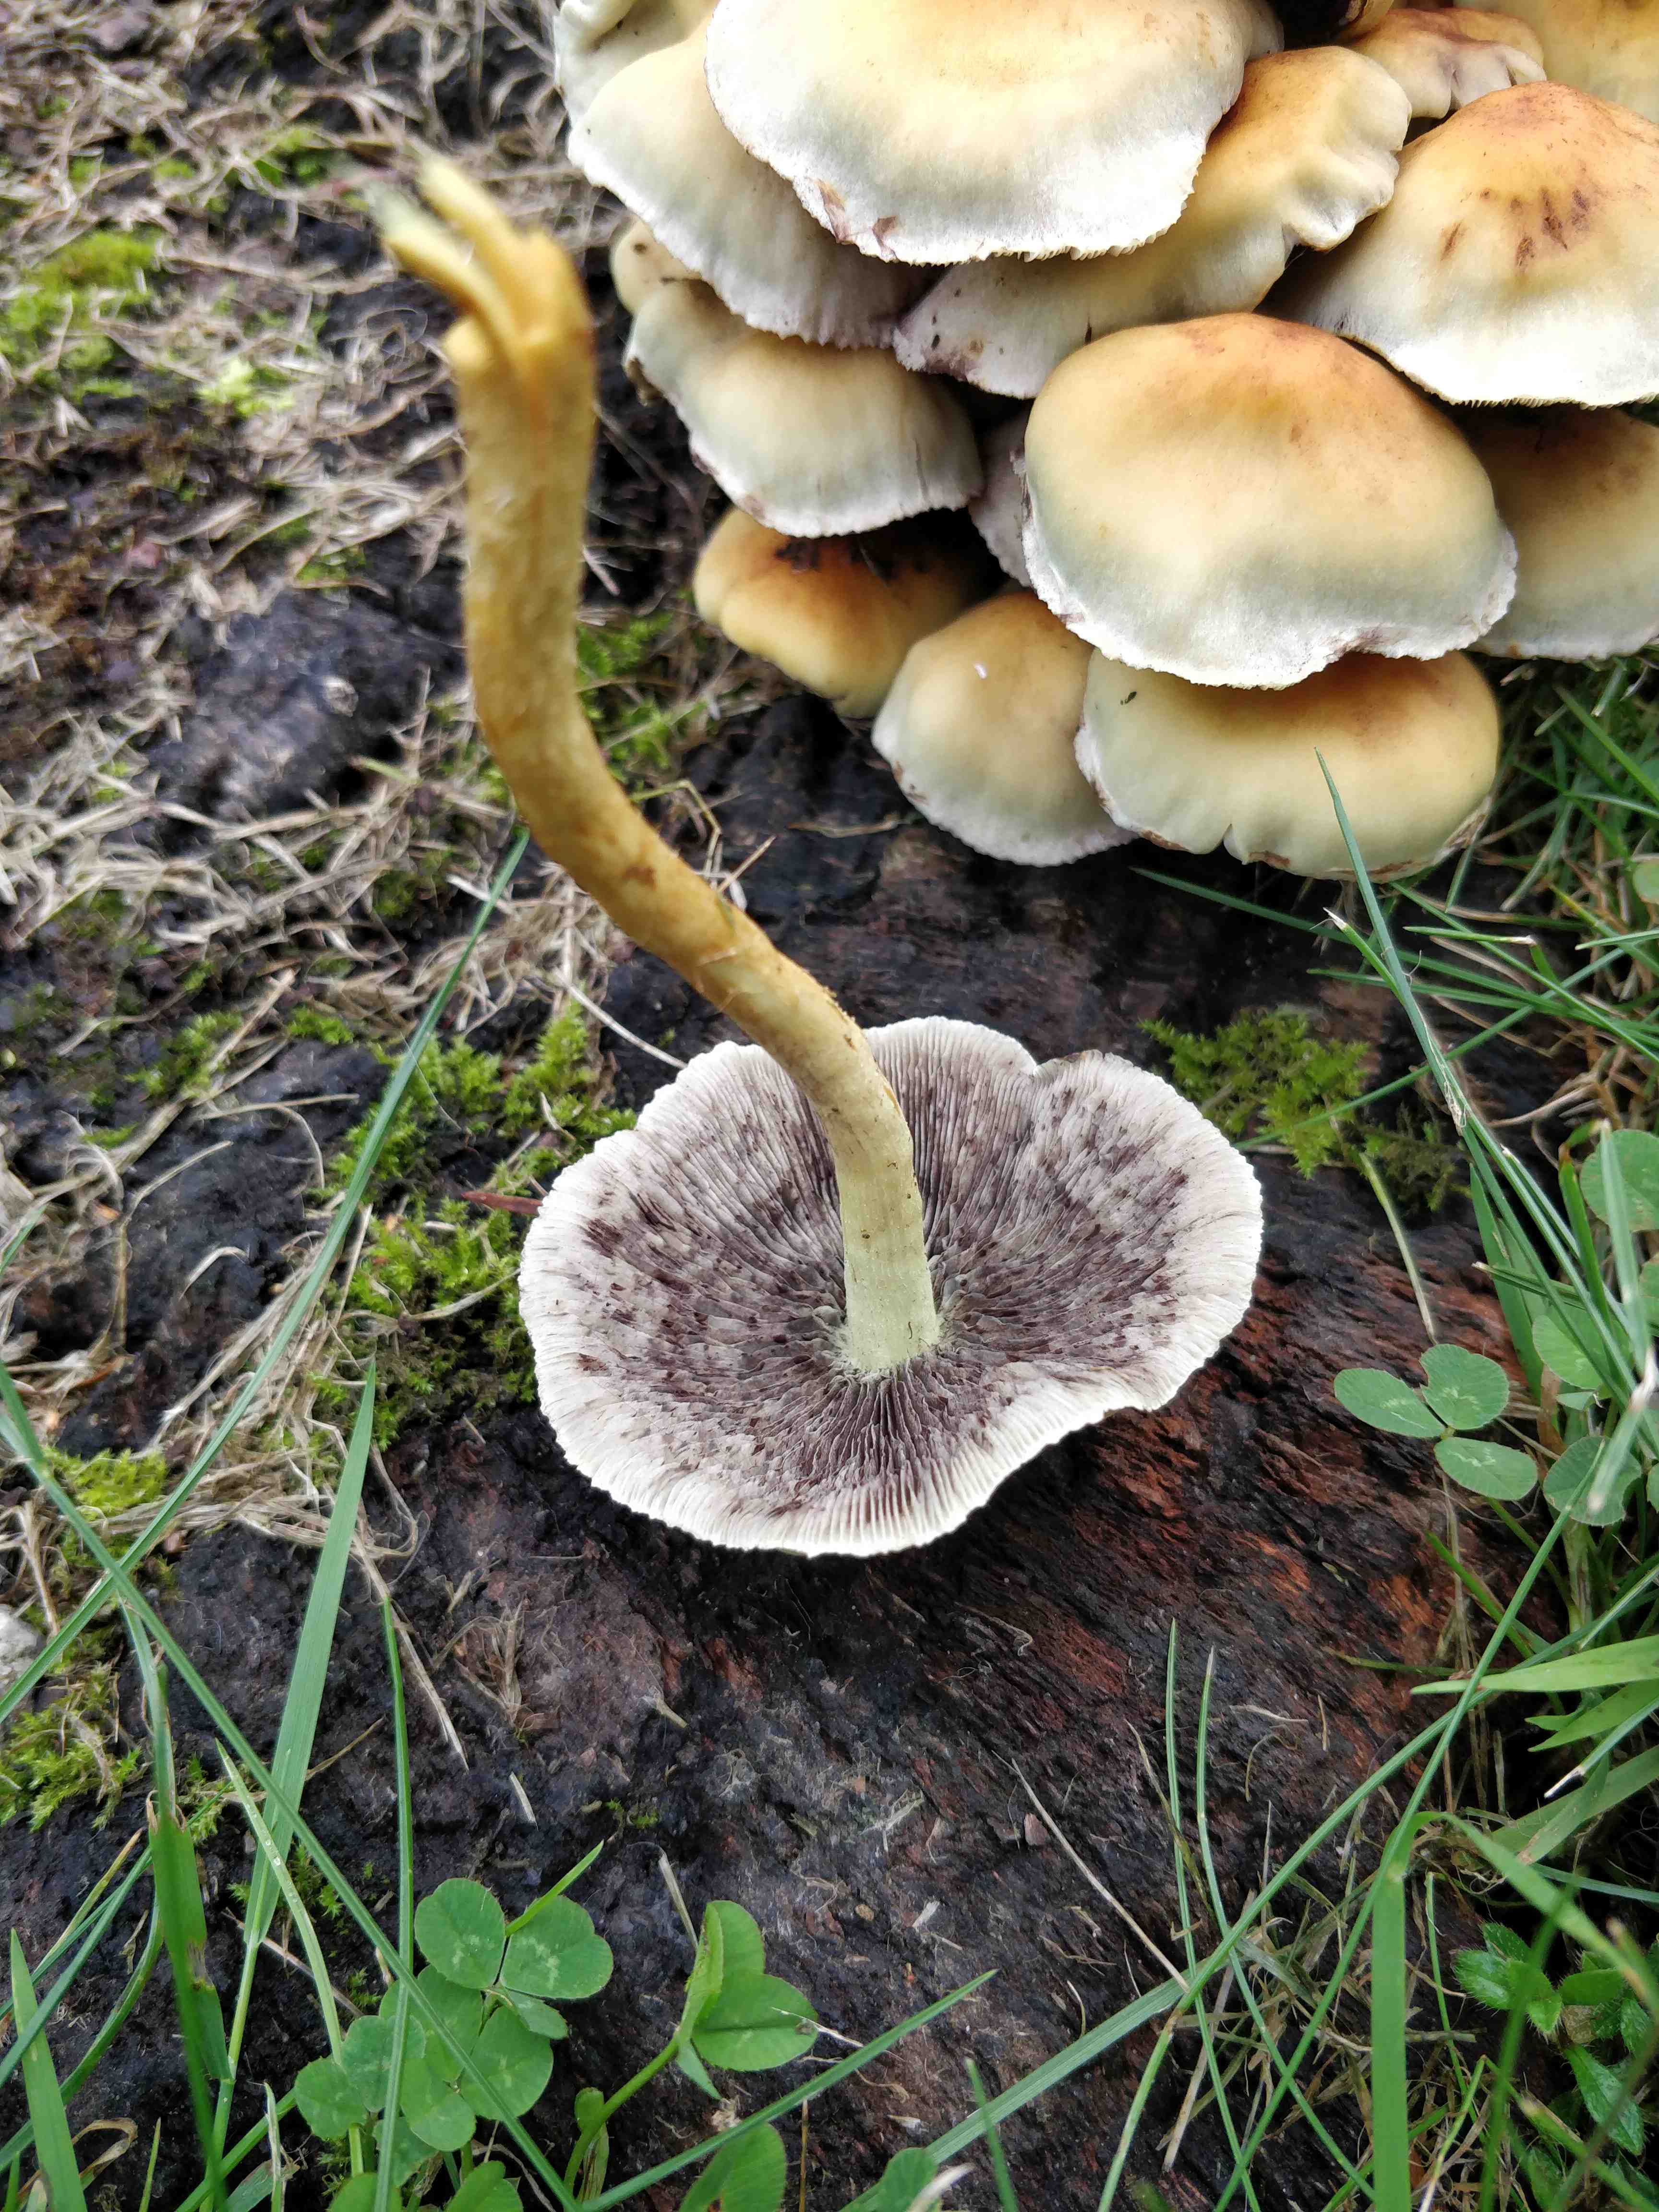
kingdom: Fungi
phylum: Basidiomycota
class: Agaricomycetes
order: Agaricales
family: Strophariaceae
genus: Hypholoma
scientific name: Hypholoma fasciculare
